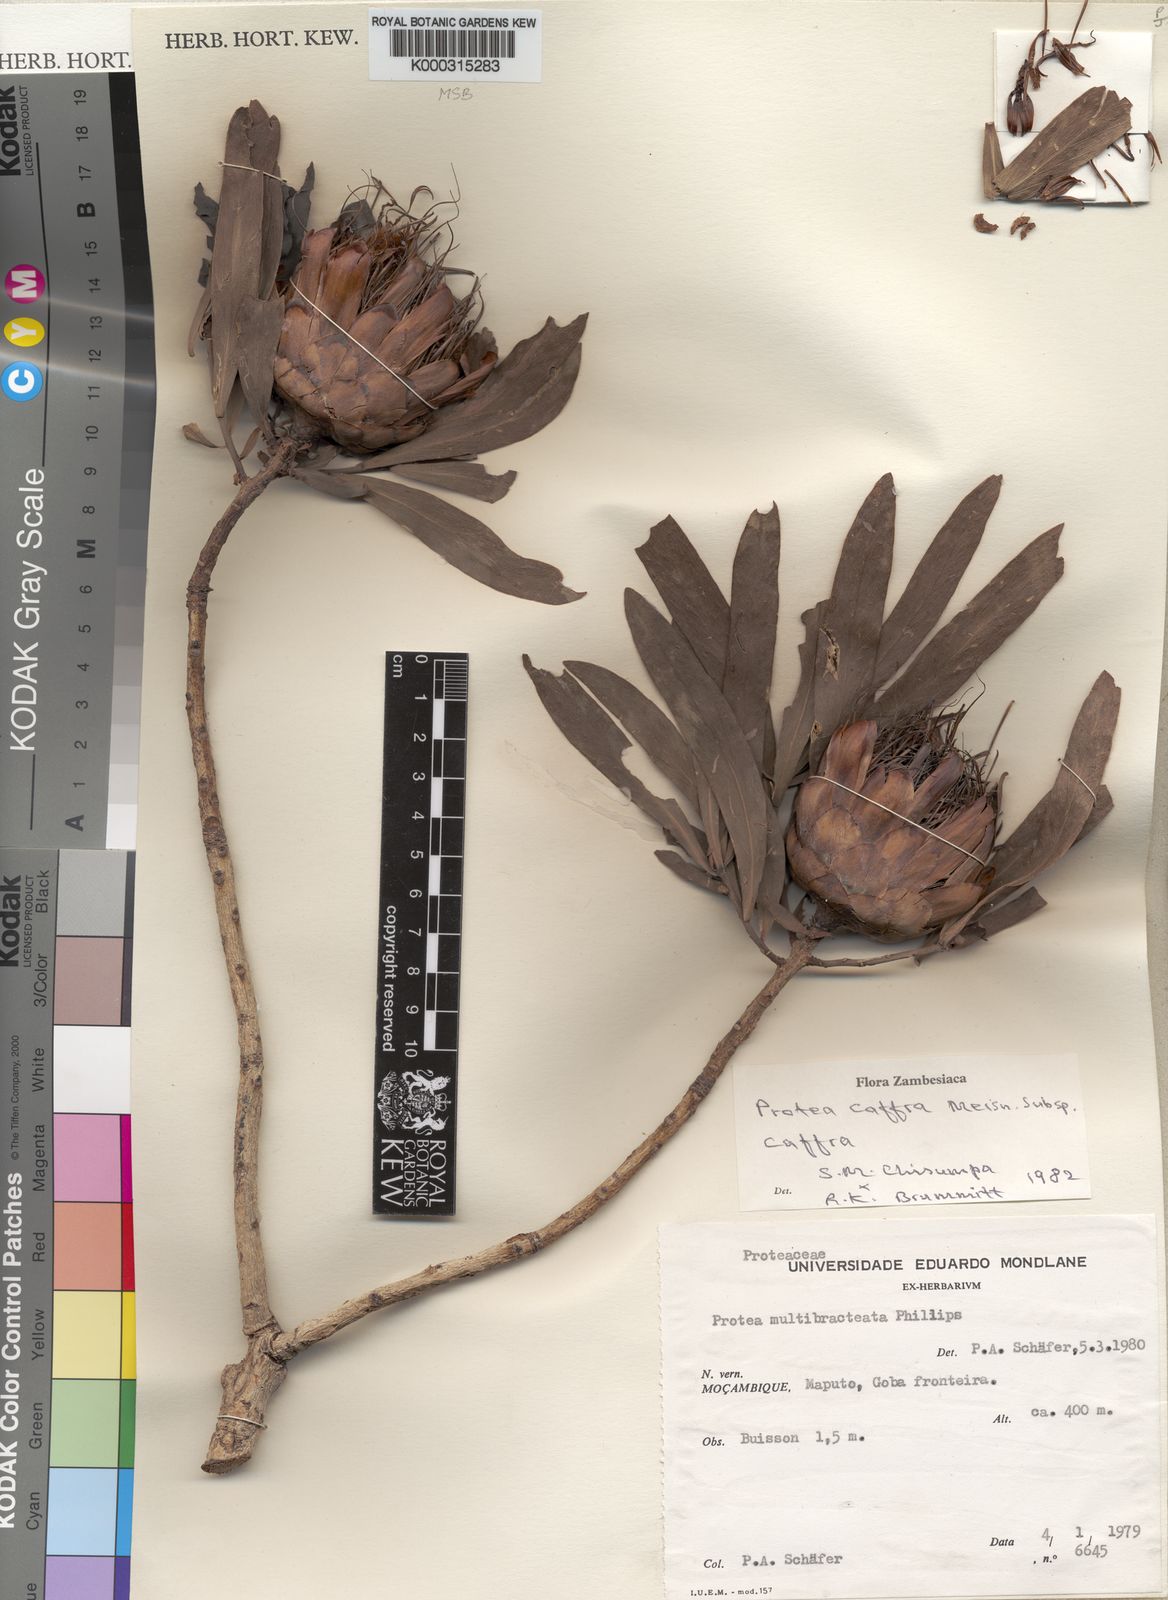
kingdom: Plantae
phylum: Tracheophyta
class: Magnoliopsida
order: Proteales
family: Proteaceae
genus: Protea
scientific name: Protea caffra
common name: Common sugarbush
